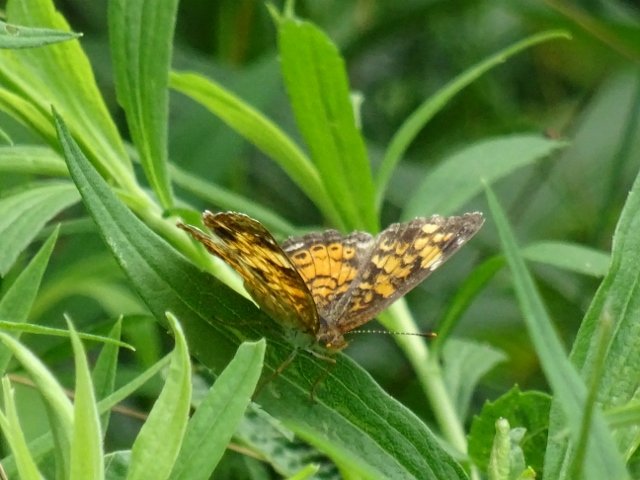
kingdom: Animalia
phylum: Arthropoda
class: Insecta
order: Lepidoptera
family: Nymphalidae
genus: Phyciodes
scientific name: Phyciodes tharos
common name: Northern Crescent
